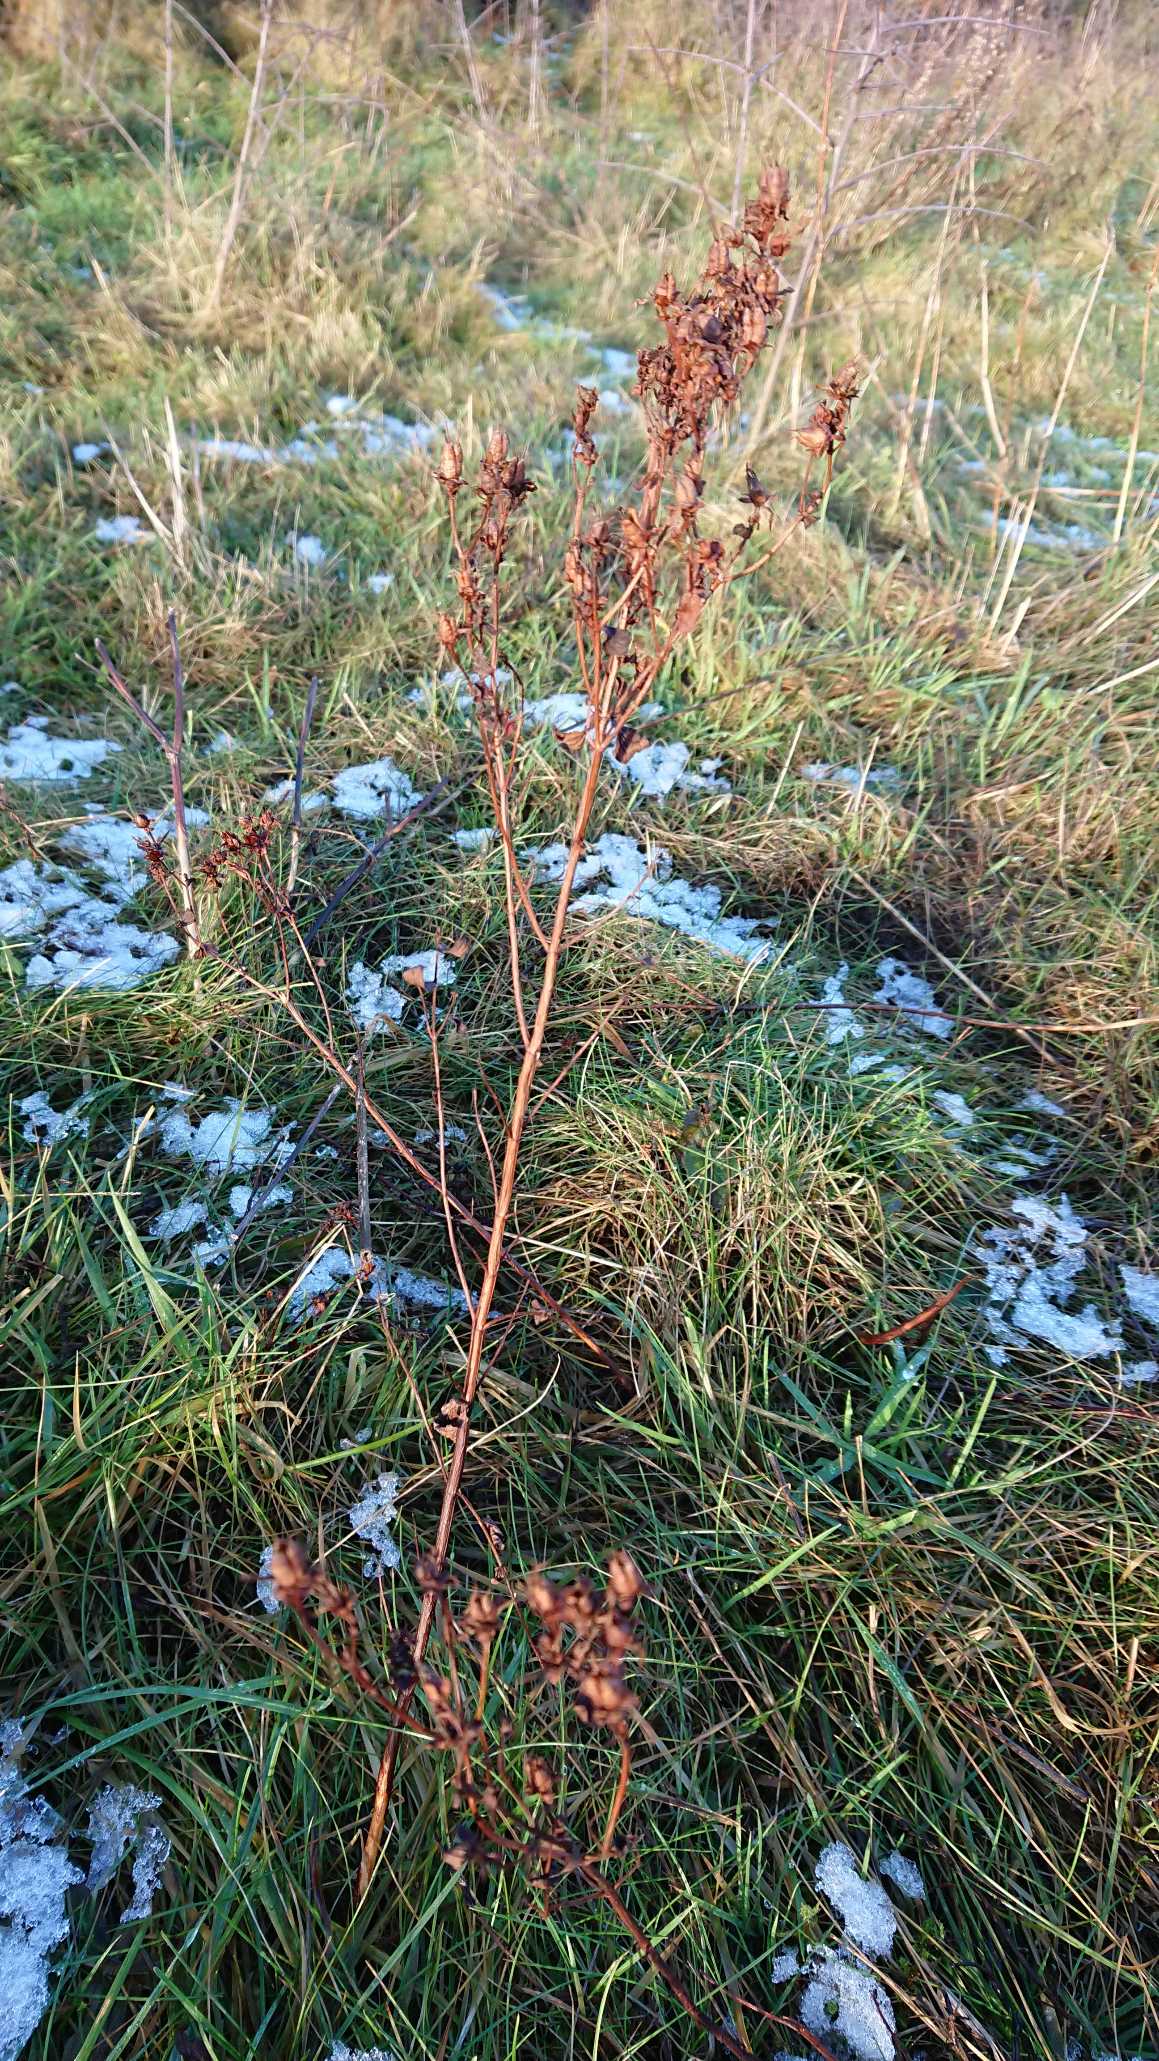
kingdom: Plantae
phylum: Tracheophyta
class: Magnoliopsida
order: Malpighiales
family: Hypericaceae
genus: Hypericum
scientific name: Hypericum maculatum
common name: Kantet perikon
